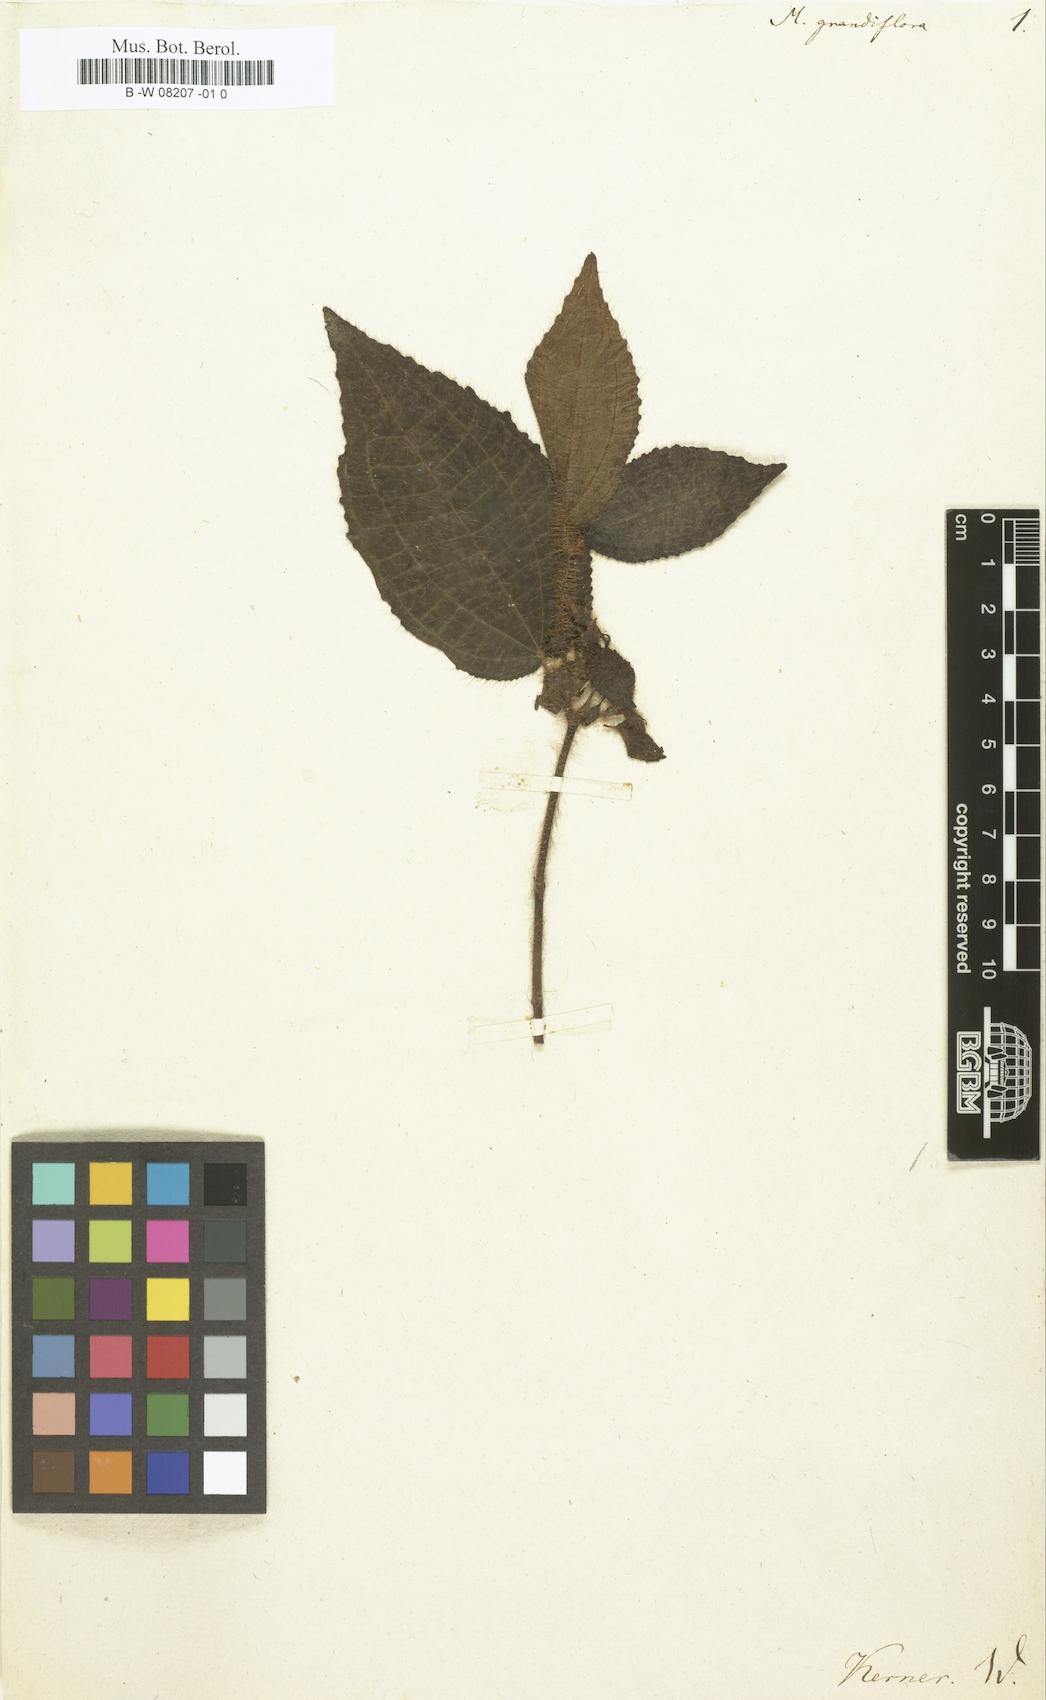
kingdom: Plantae
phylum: Tracheophyta
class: Magnoliopsida
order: Myrtales
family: Melastomataceae
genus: Melastoma
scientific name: Melastoma grandiflorum
